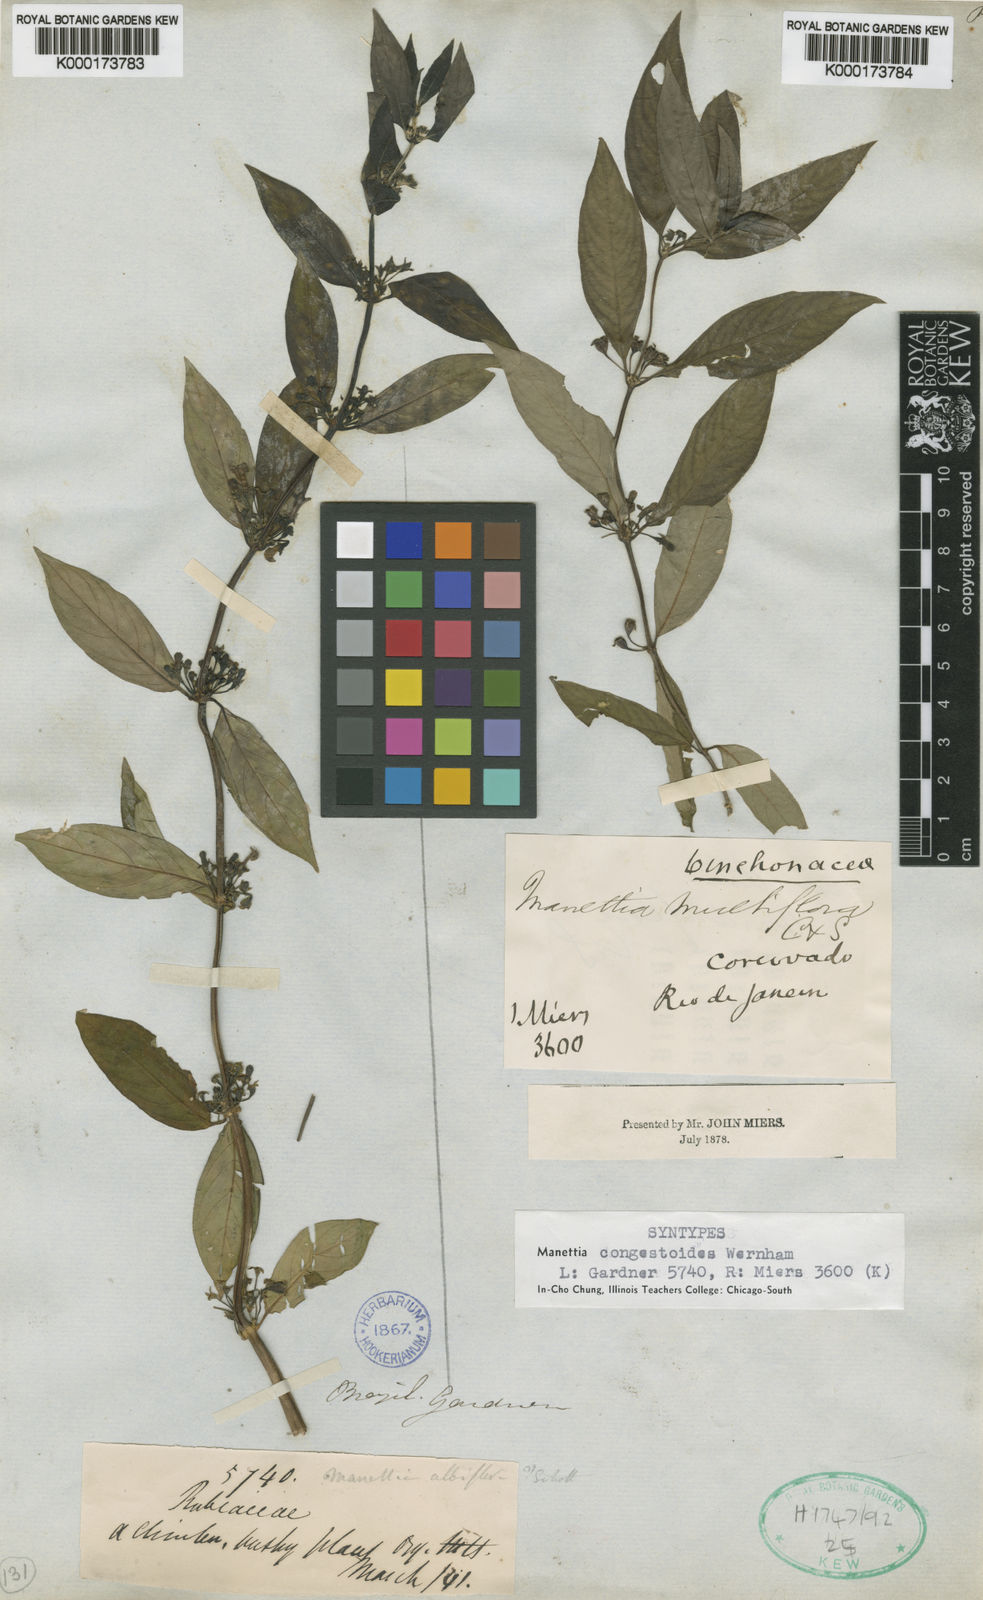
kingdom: Plantae
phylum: Tracheophyta
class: Magnoliopsida
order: Gentianales
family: Rubiaceae
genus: Manettia
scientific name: Manettia congestoides
